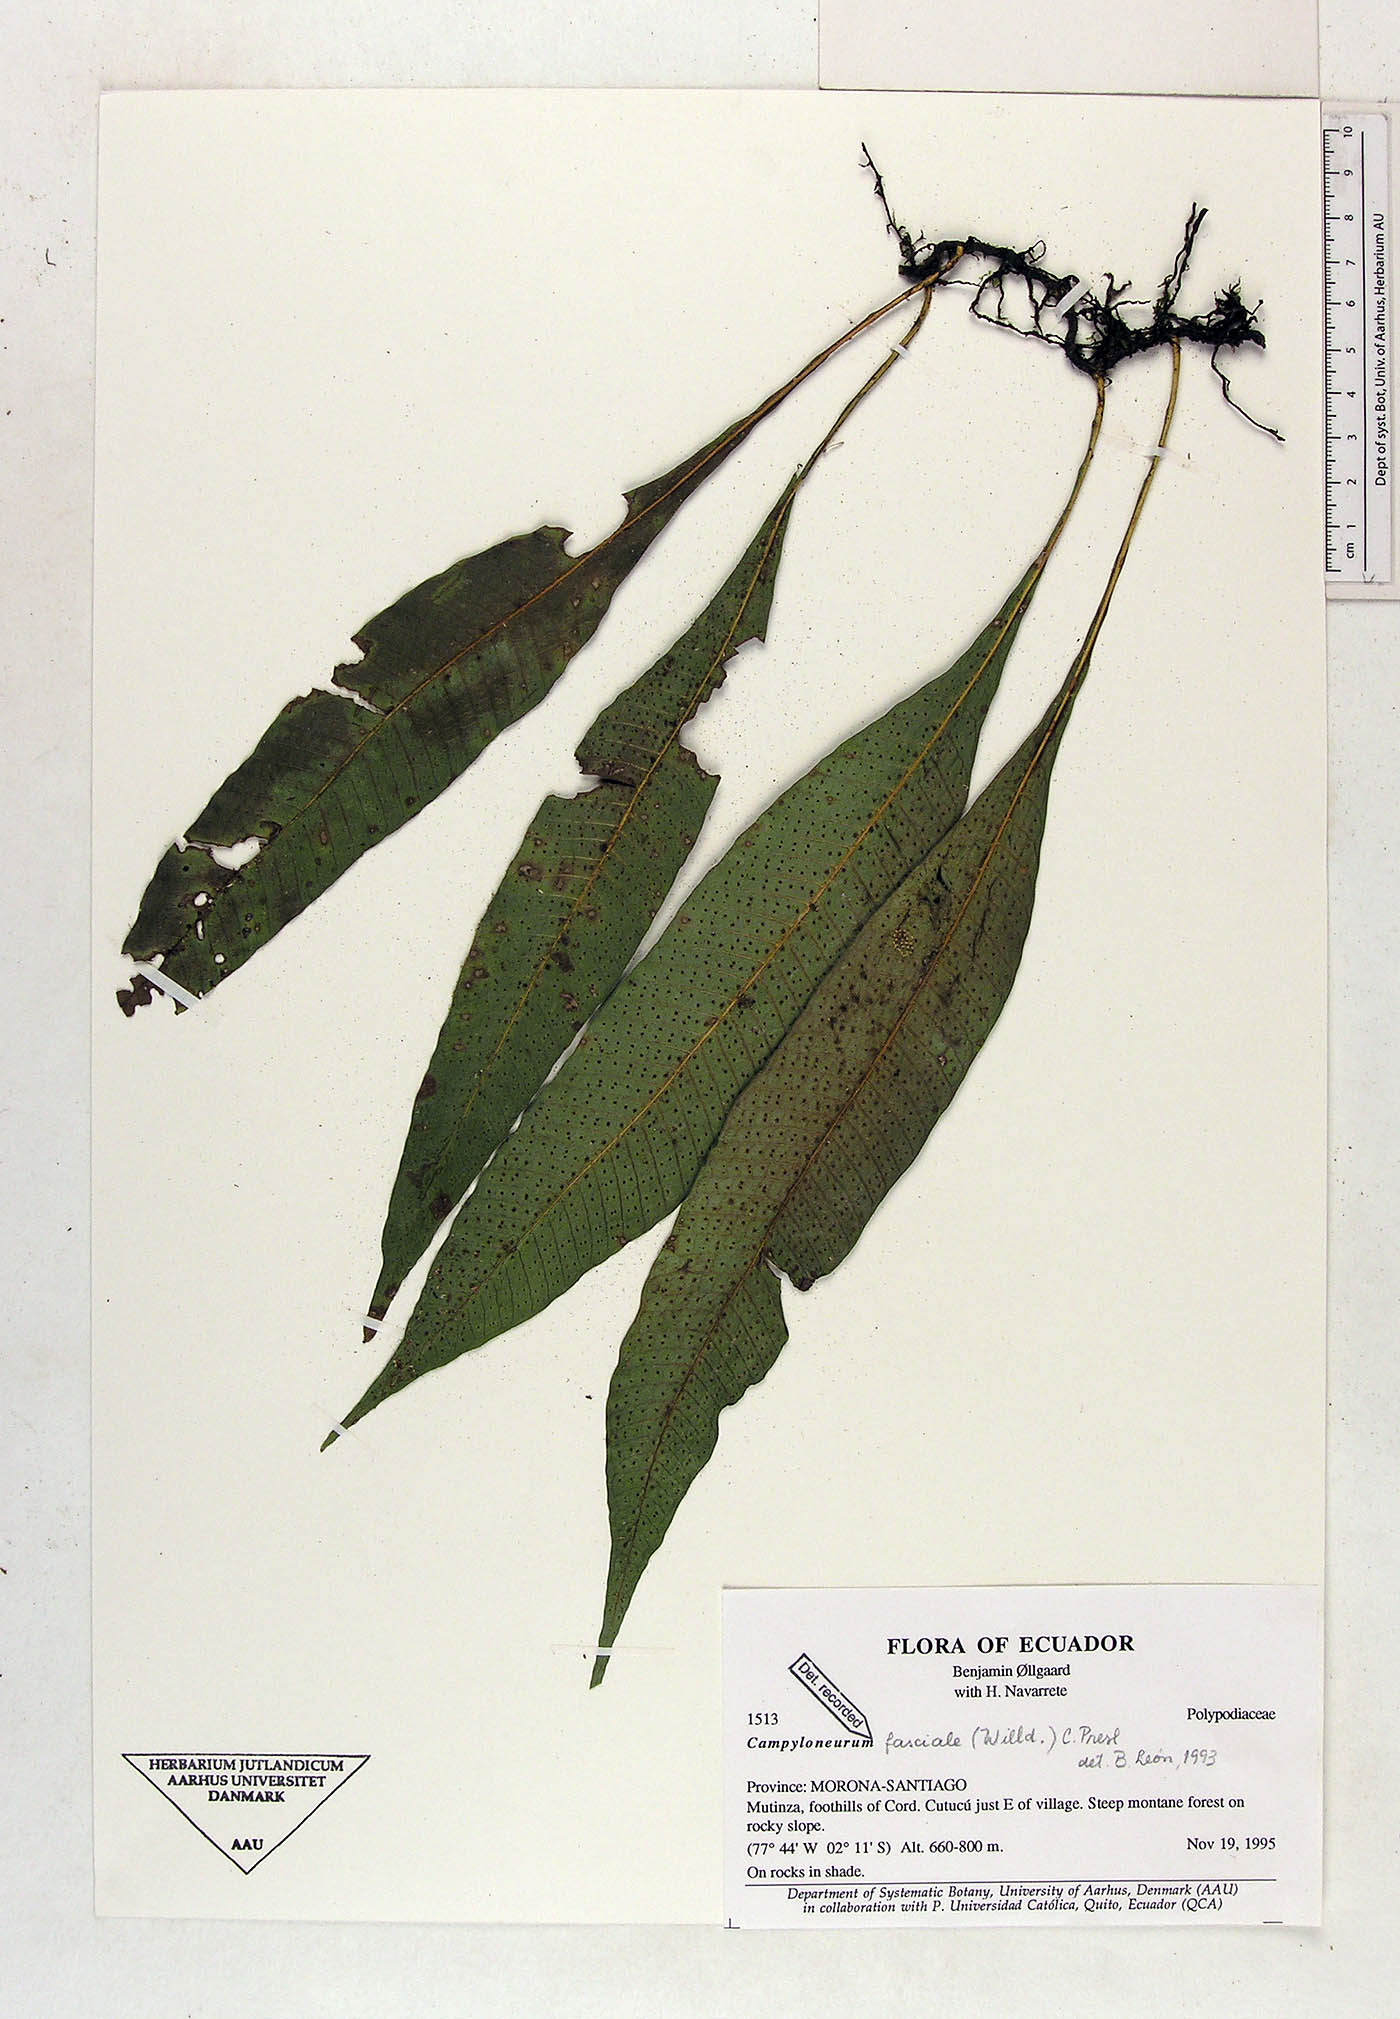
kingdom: Plantae
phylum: Tracheophyta
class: Polypodiopsida
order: Polypodiales
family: Polypodiaceae
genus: Campyloneurum
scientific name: Campyloneurum repens
